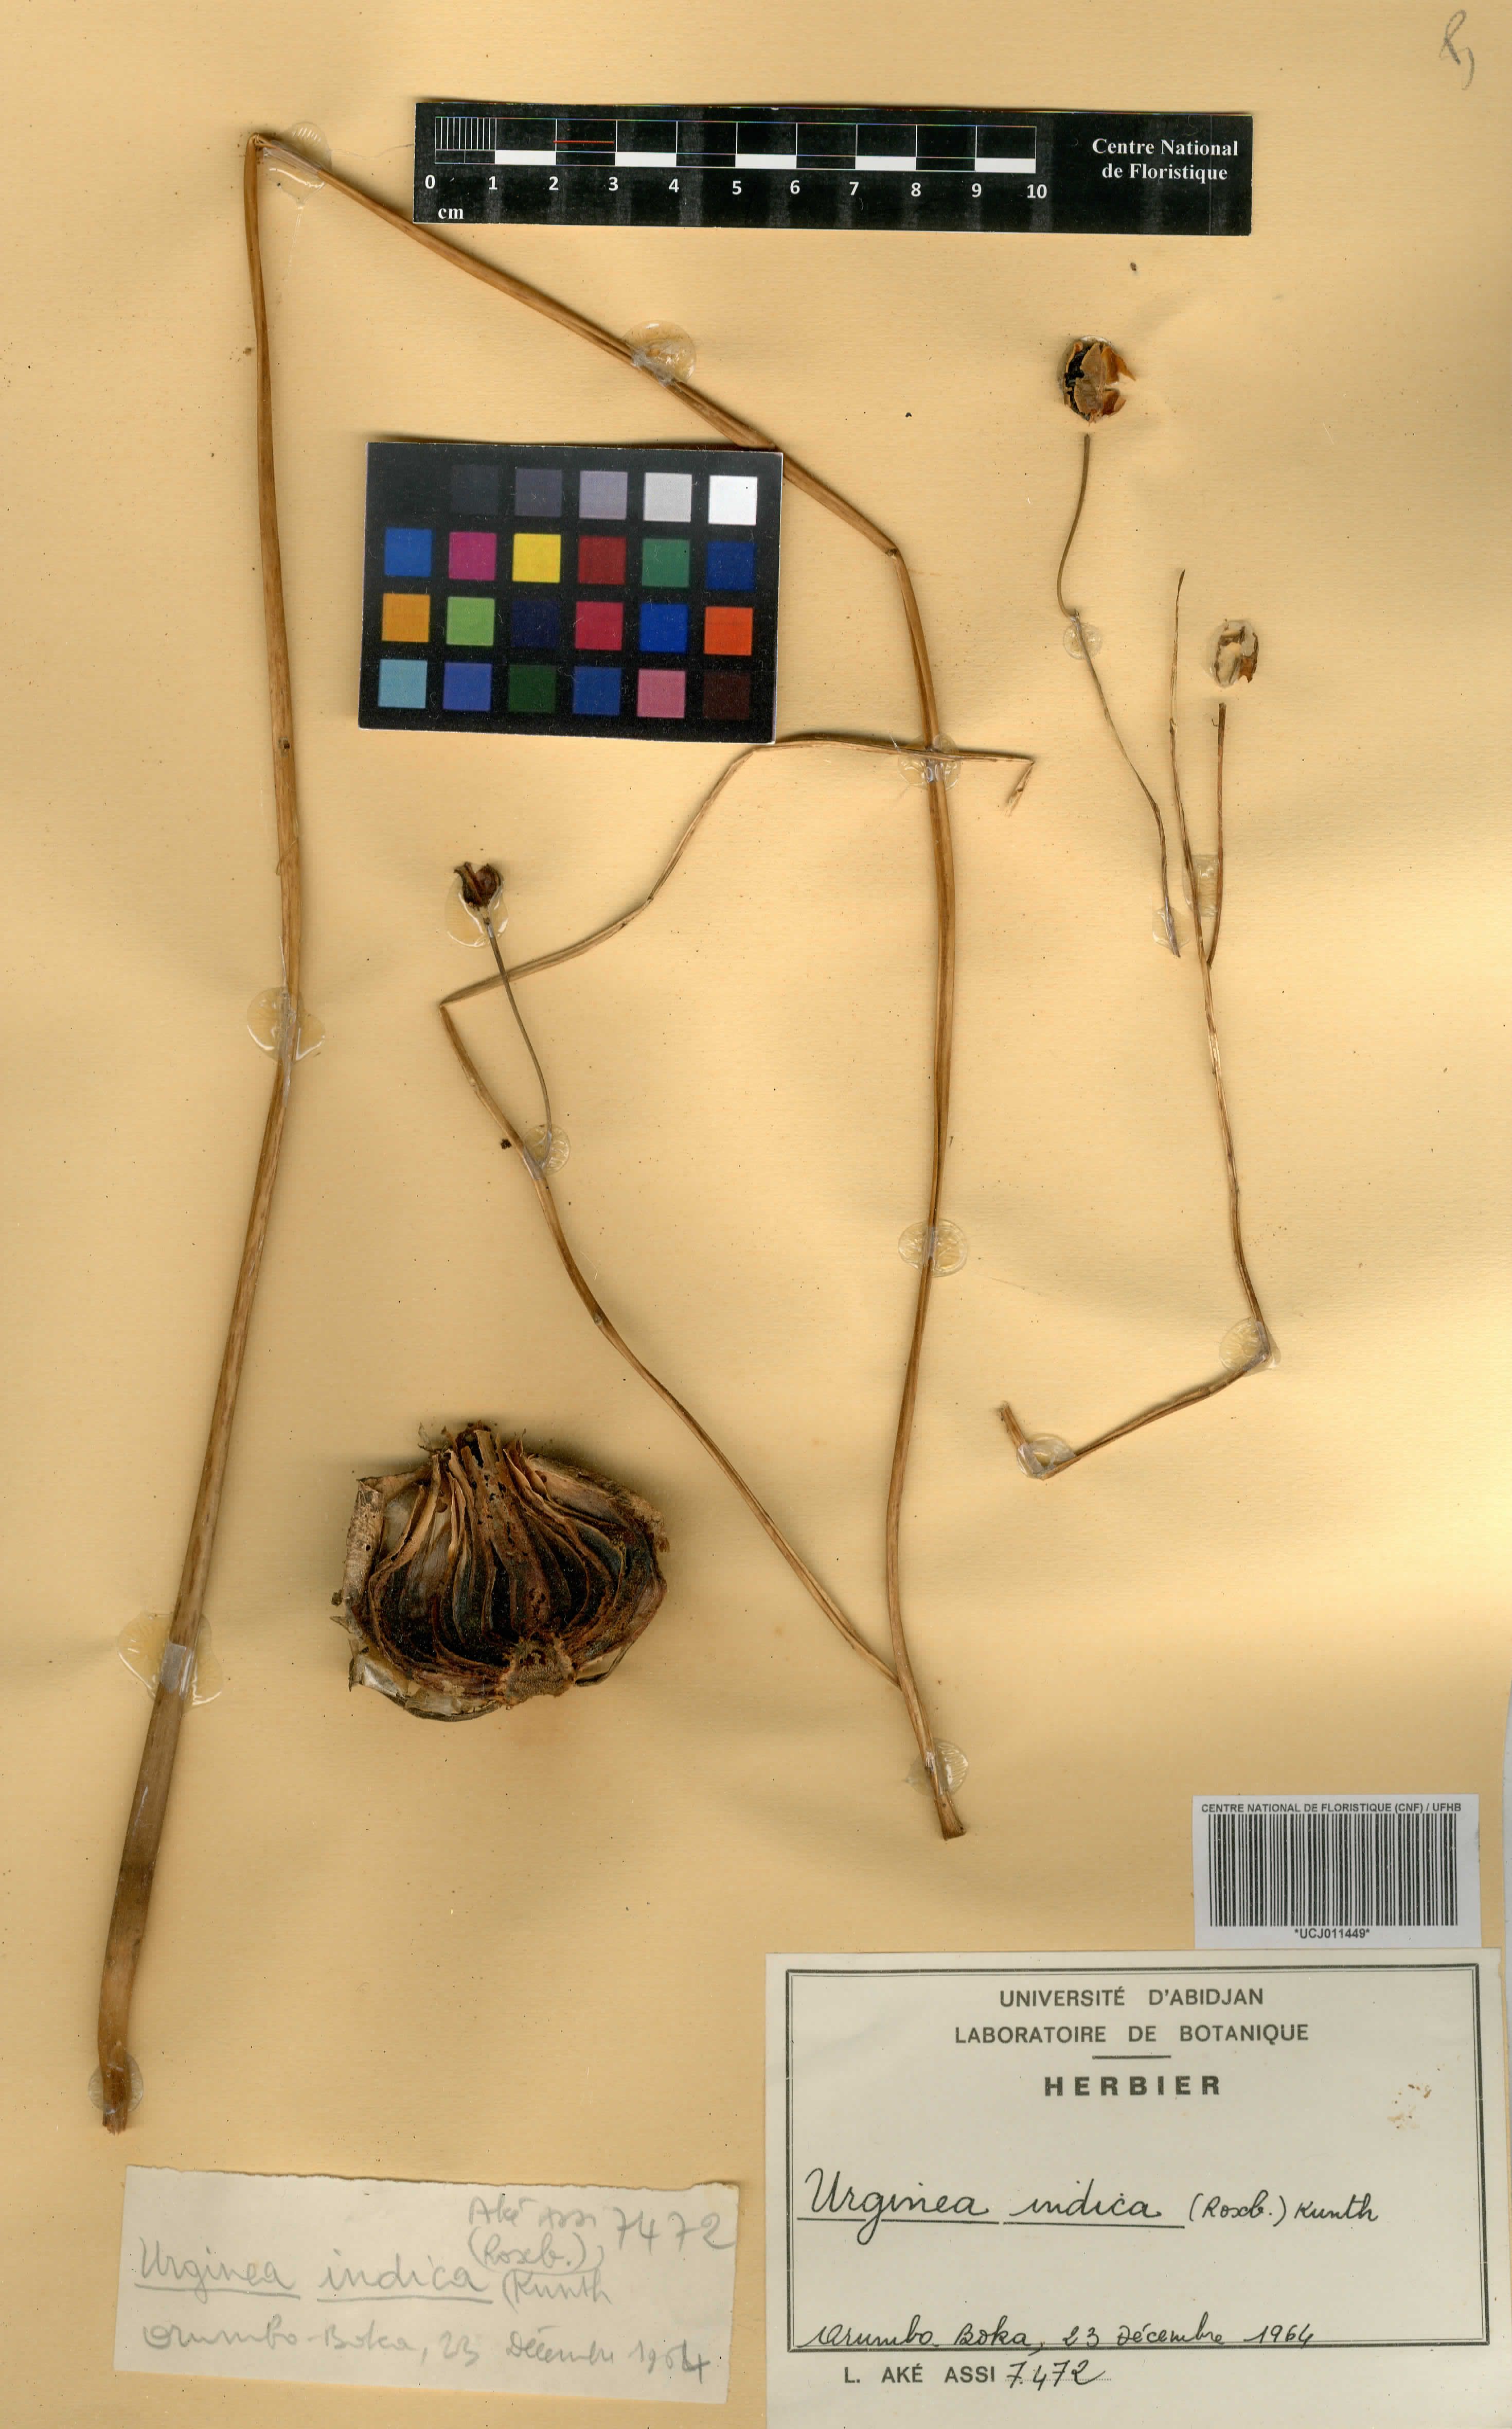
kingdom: Plantae
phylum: Tracheophyta
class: Liliopsida
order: Asparagales
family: Asparagaceae
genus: Drimia
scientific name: Drimia indica
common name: Indian-squill
